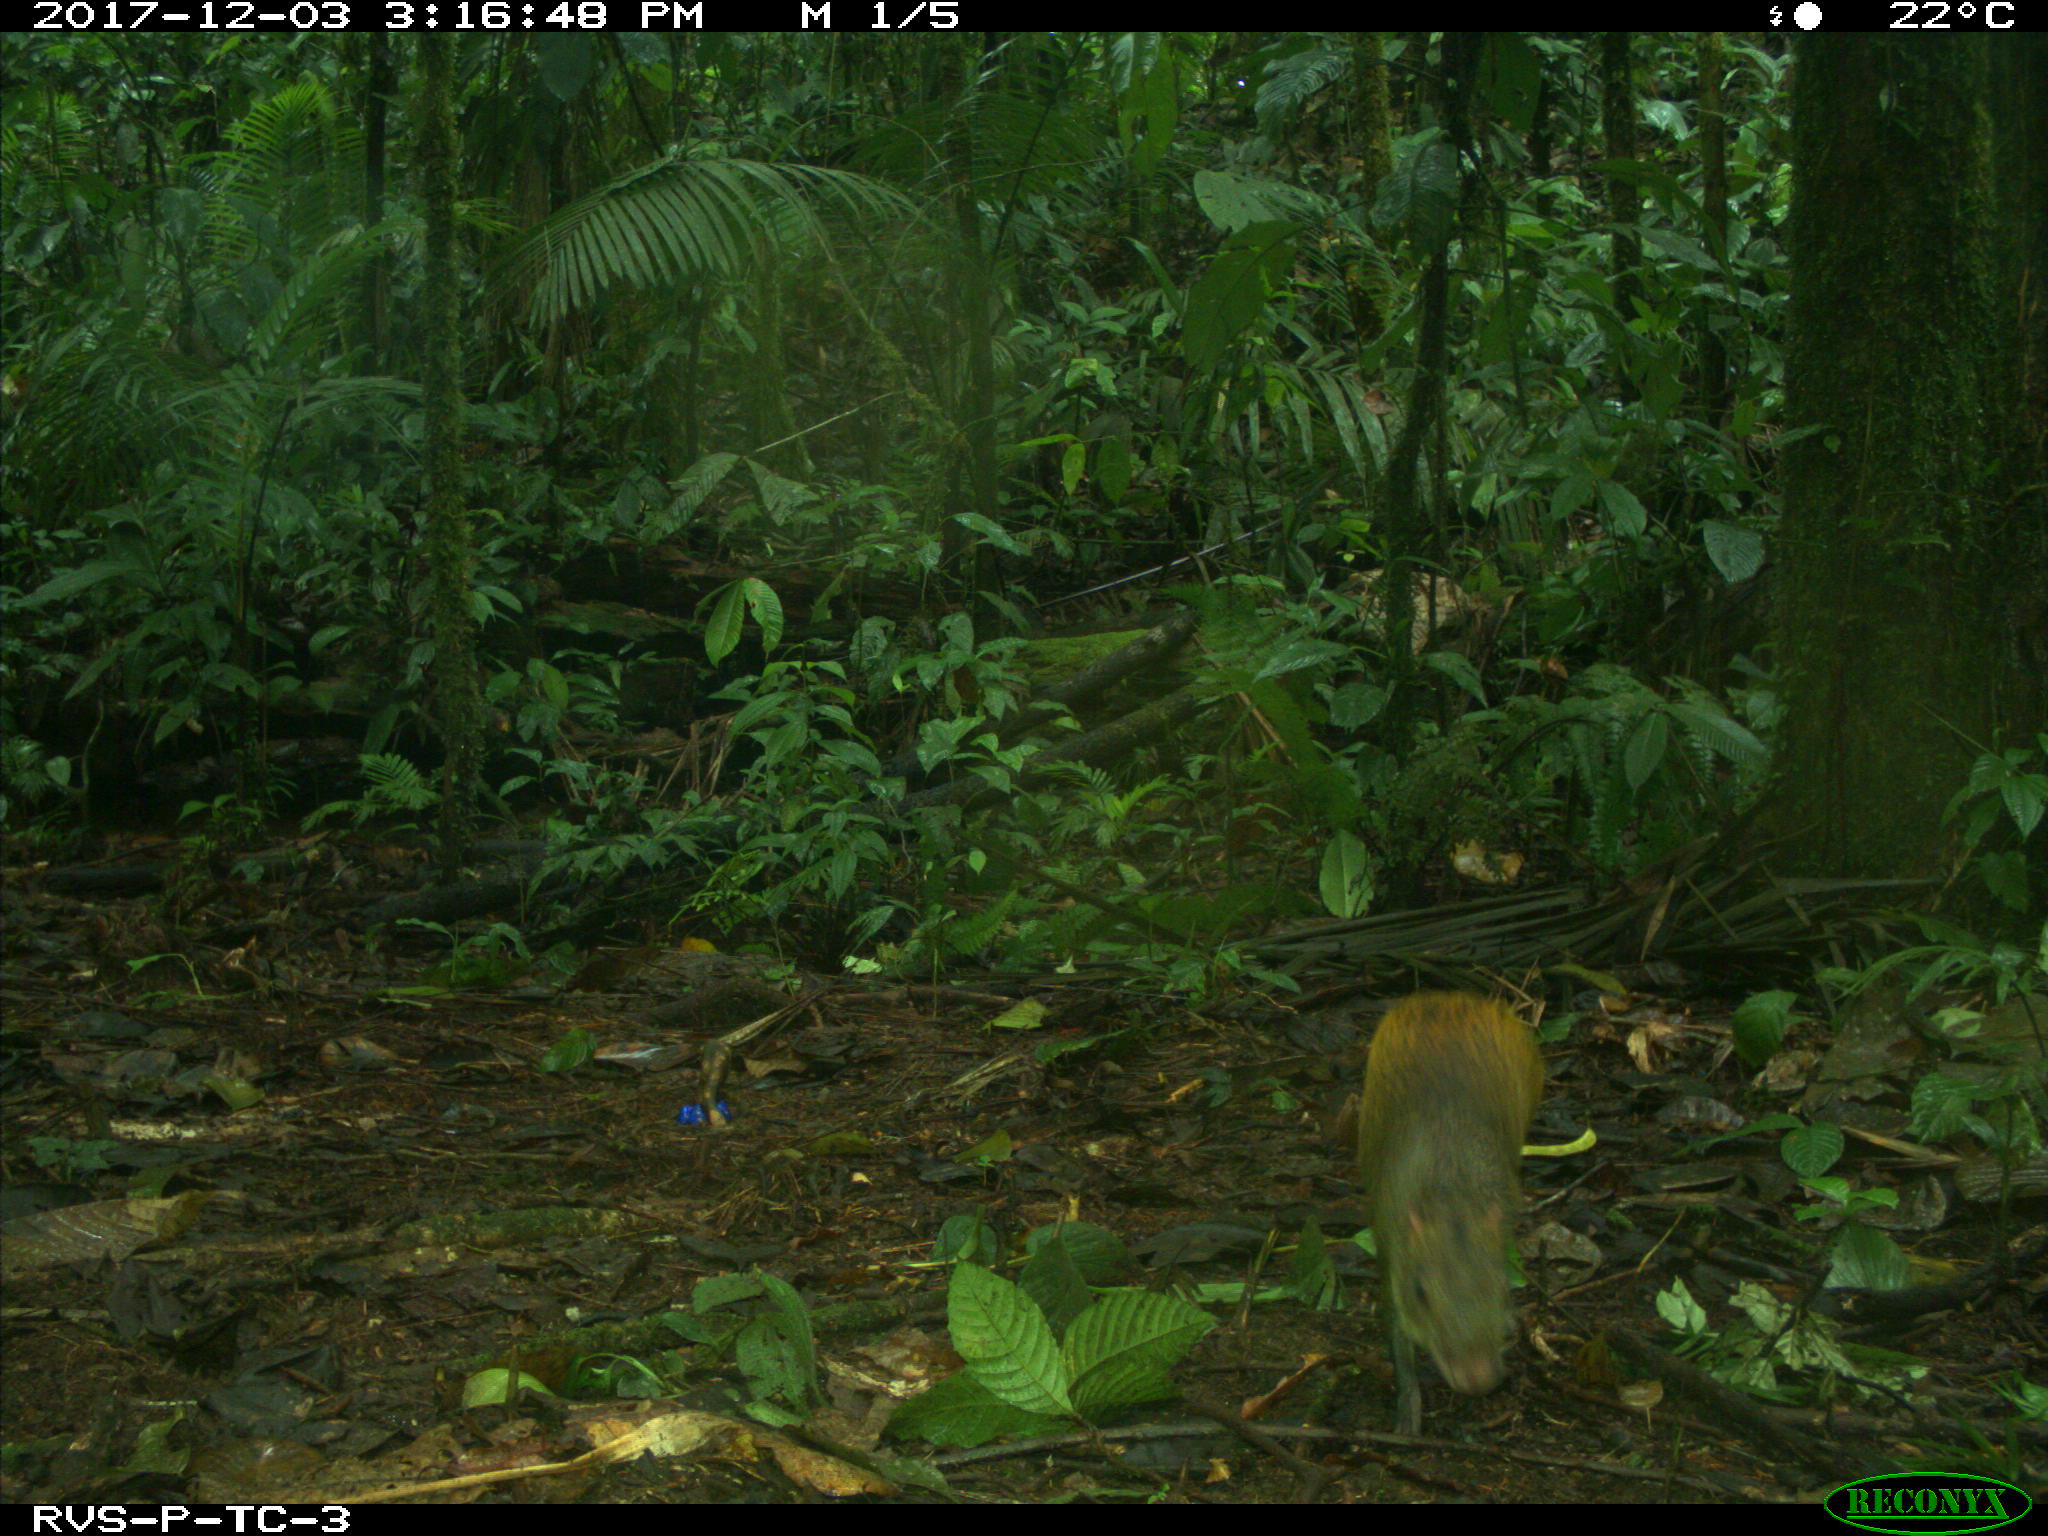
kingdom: Animalia
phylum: Chordata
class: Mammalia
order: Rodentia
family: Dasyproctidae
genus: Dasyprocta
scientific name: Dasyprocta punctata
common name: Central american agouti
